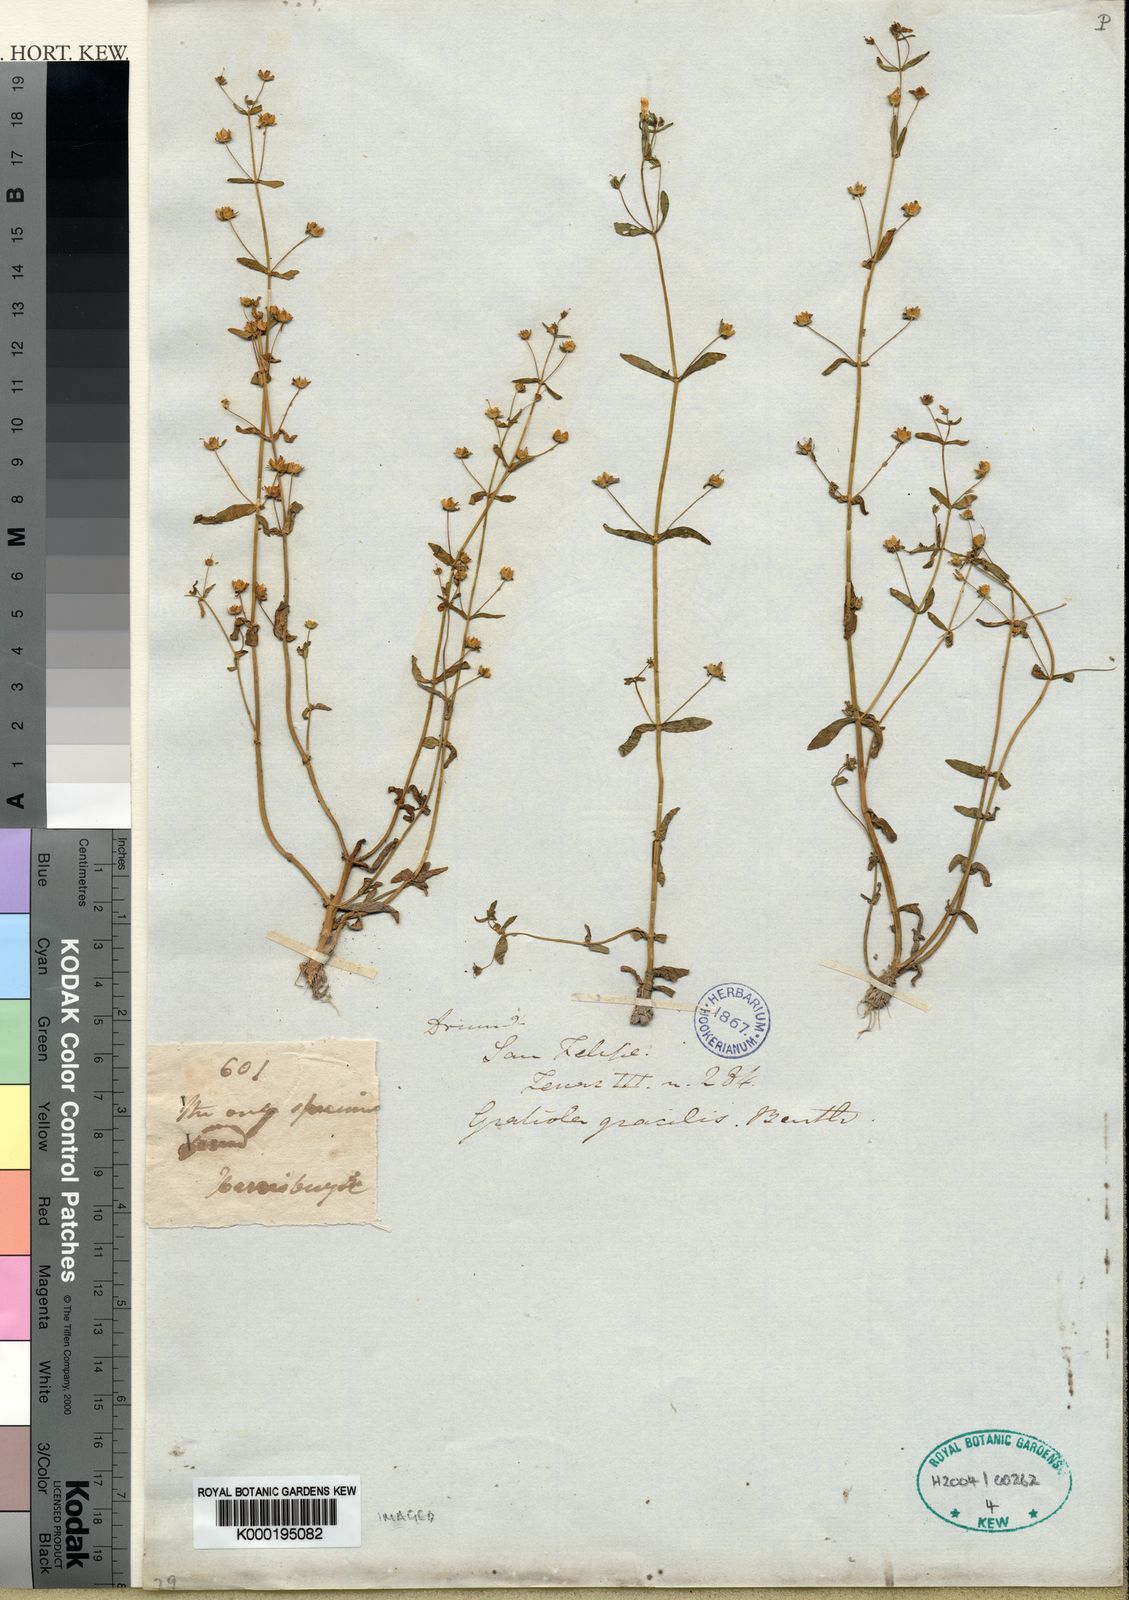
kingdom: Plantae
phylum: Tracheophyta
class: Magnoliopsida
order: Lamiales
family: Plantaginaceae
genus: Gratiola
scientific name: Gratiola neglecta
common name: American hedge-hyssop
